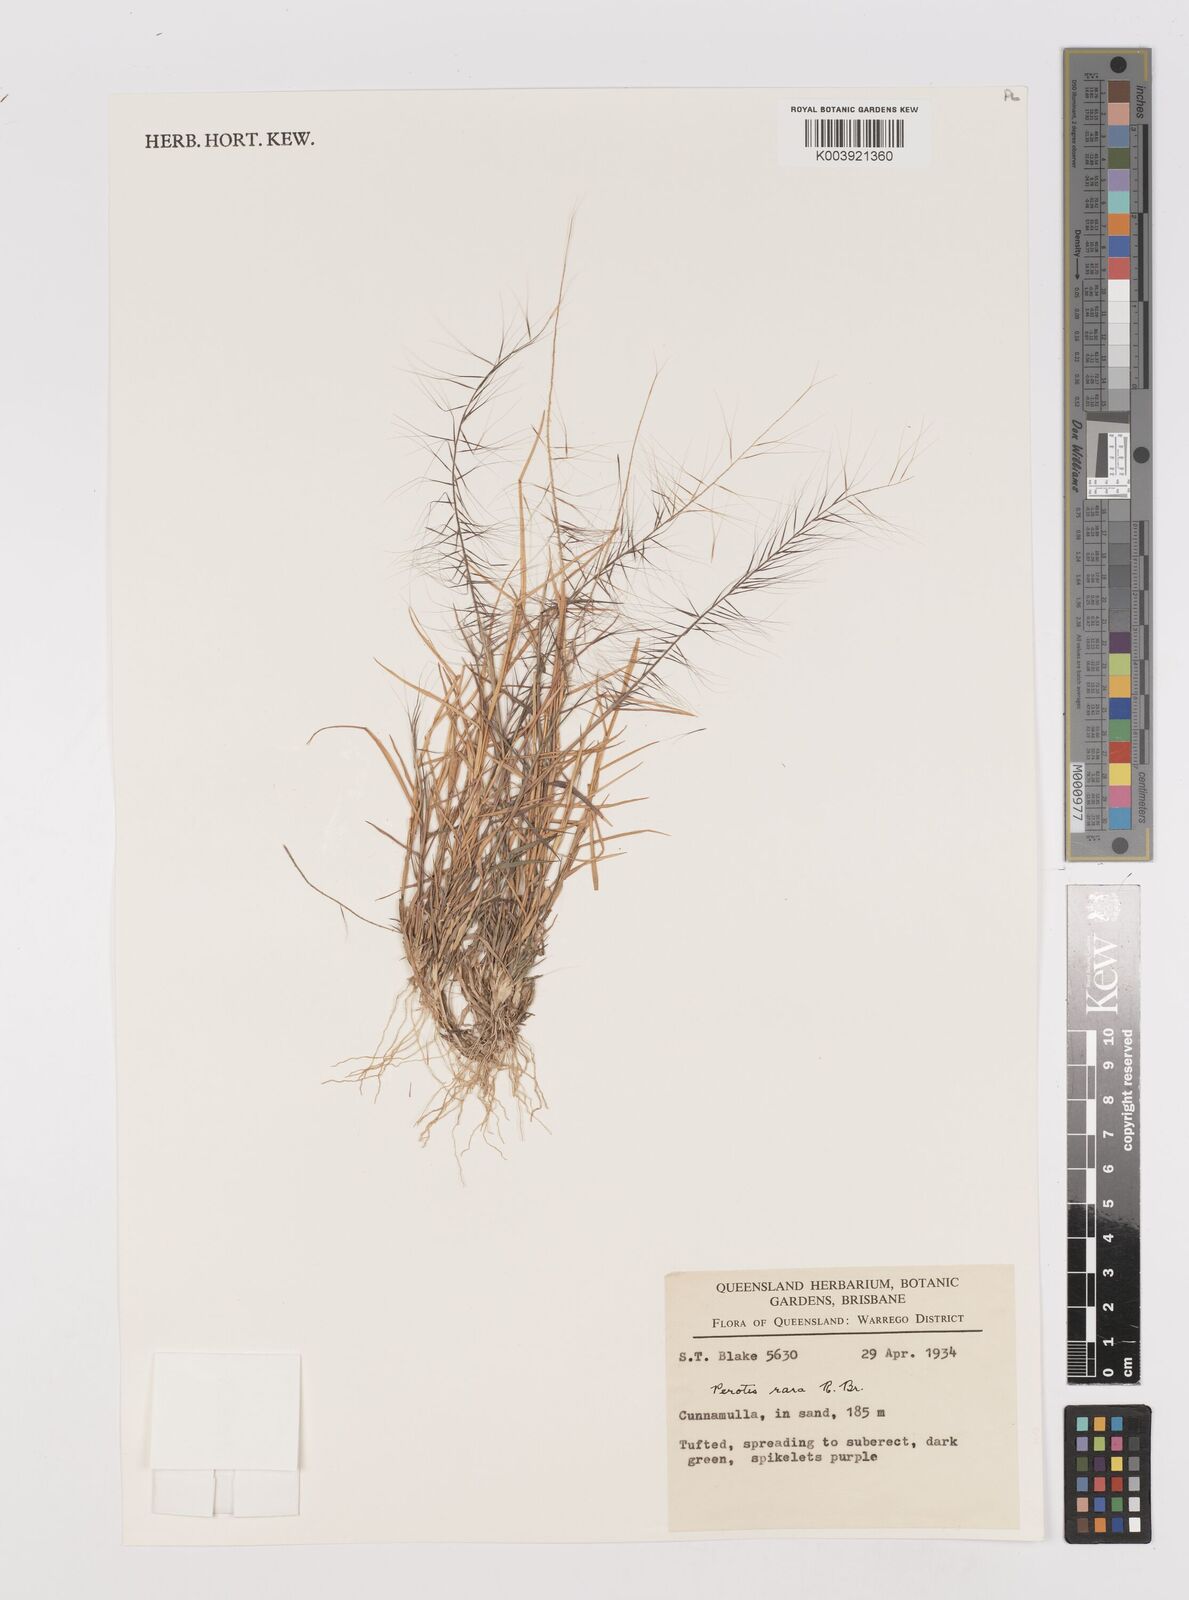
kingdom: Plantae
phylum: Tracheophyta
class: Liliopsida
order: Poales
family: Poaceae
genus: Perotis
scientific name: Perotis rara
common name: Comet grass
